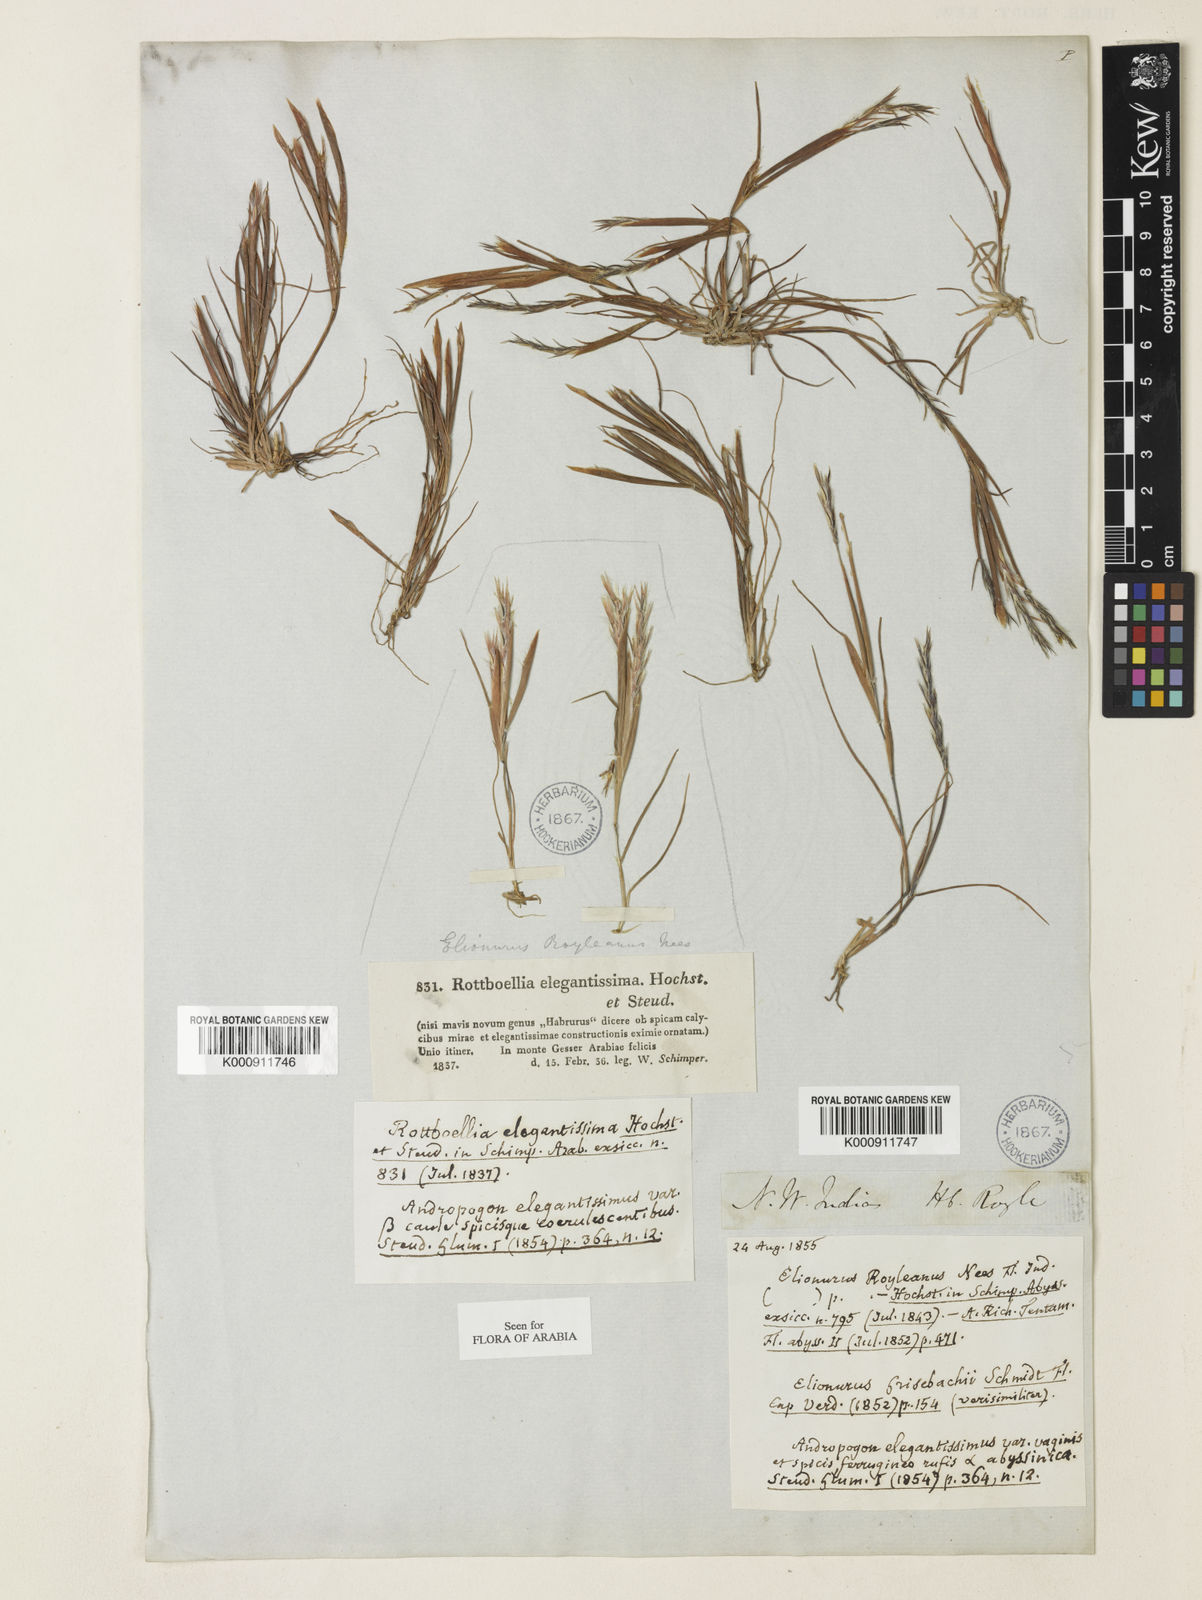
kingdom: Plantae
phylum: Tracheophyta
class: Liliopsida
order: Poales
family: Poaceae
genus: Elionurus
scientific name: Elionurus royleanus
